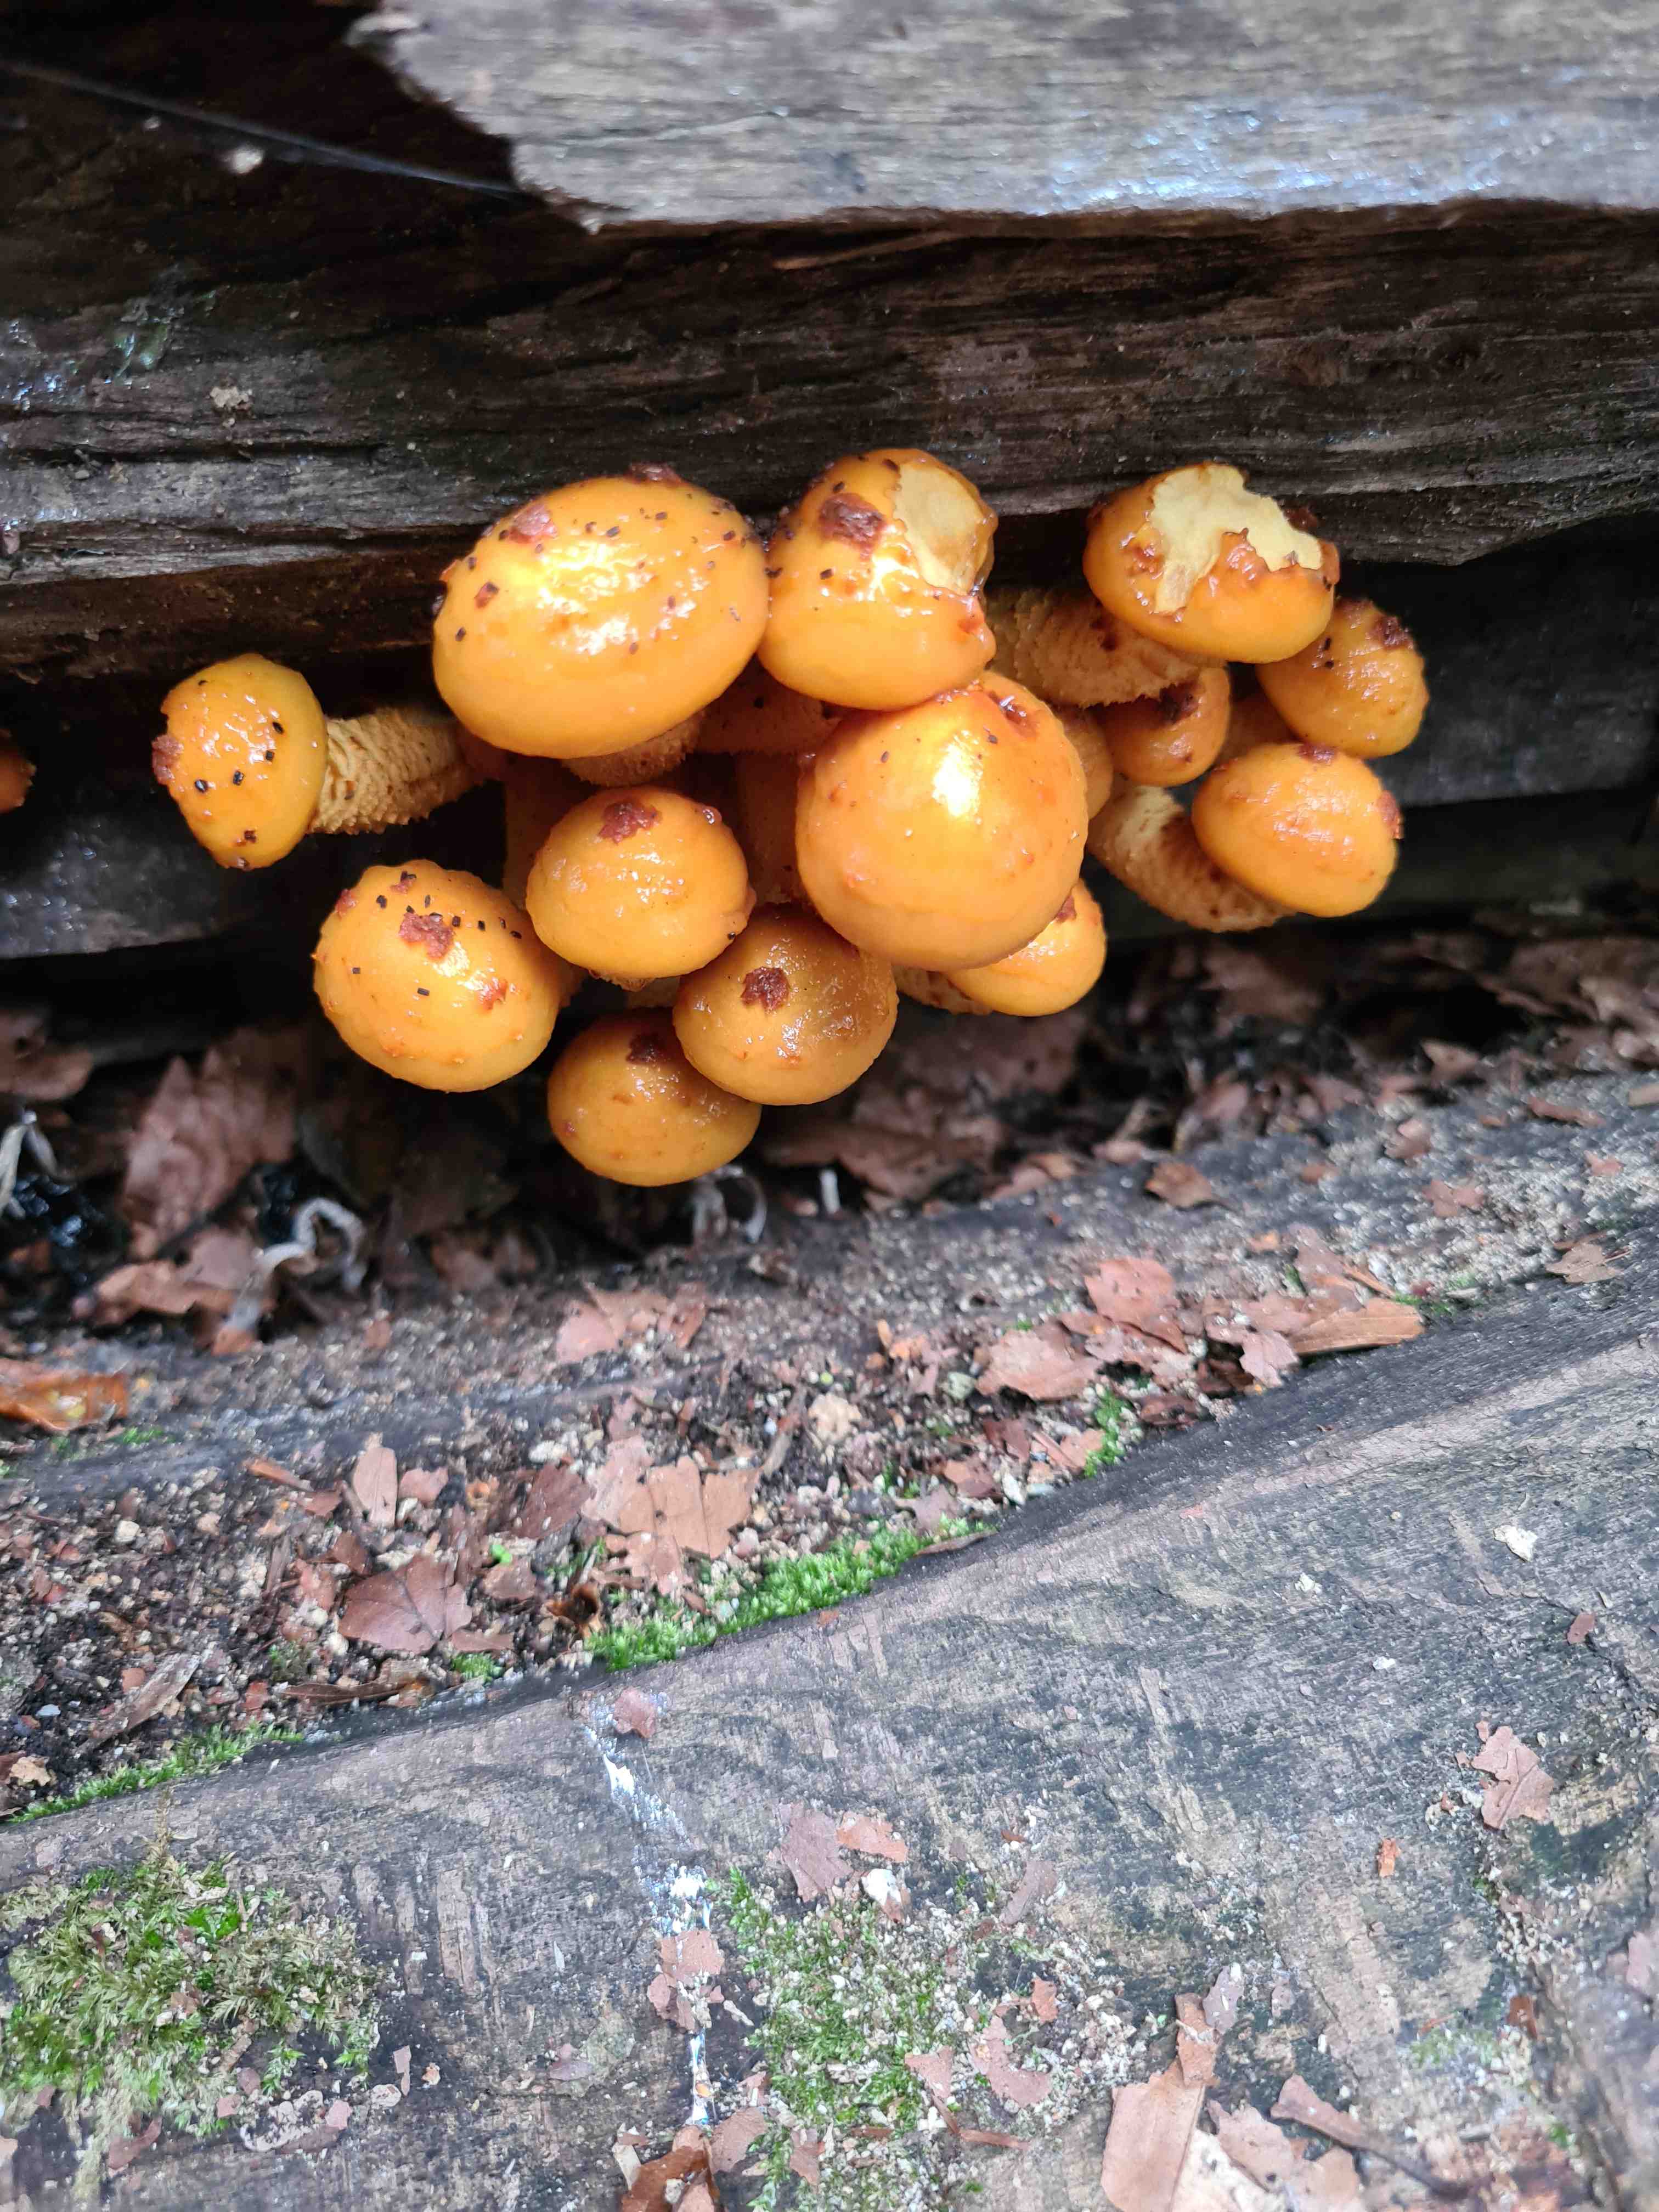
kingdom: Fungi
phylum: Basidiomycota
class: Agaricomycetes
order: Agaricales
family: Strophariaceae
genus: Pholiota
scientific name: Pholiota adiposa
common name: højtsiddende skælhat
